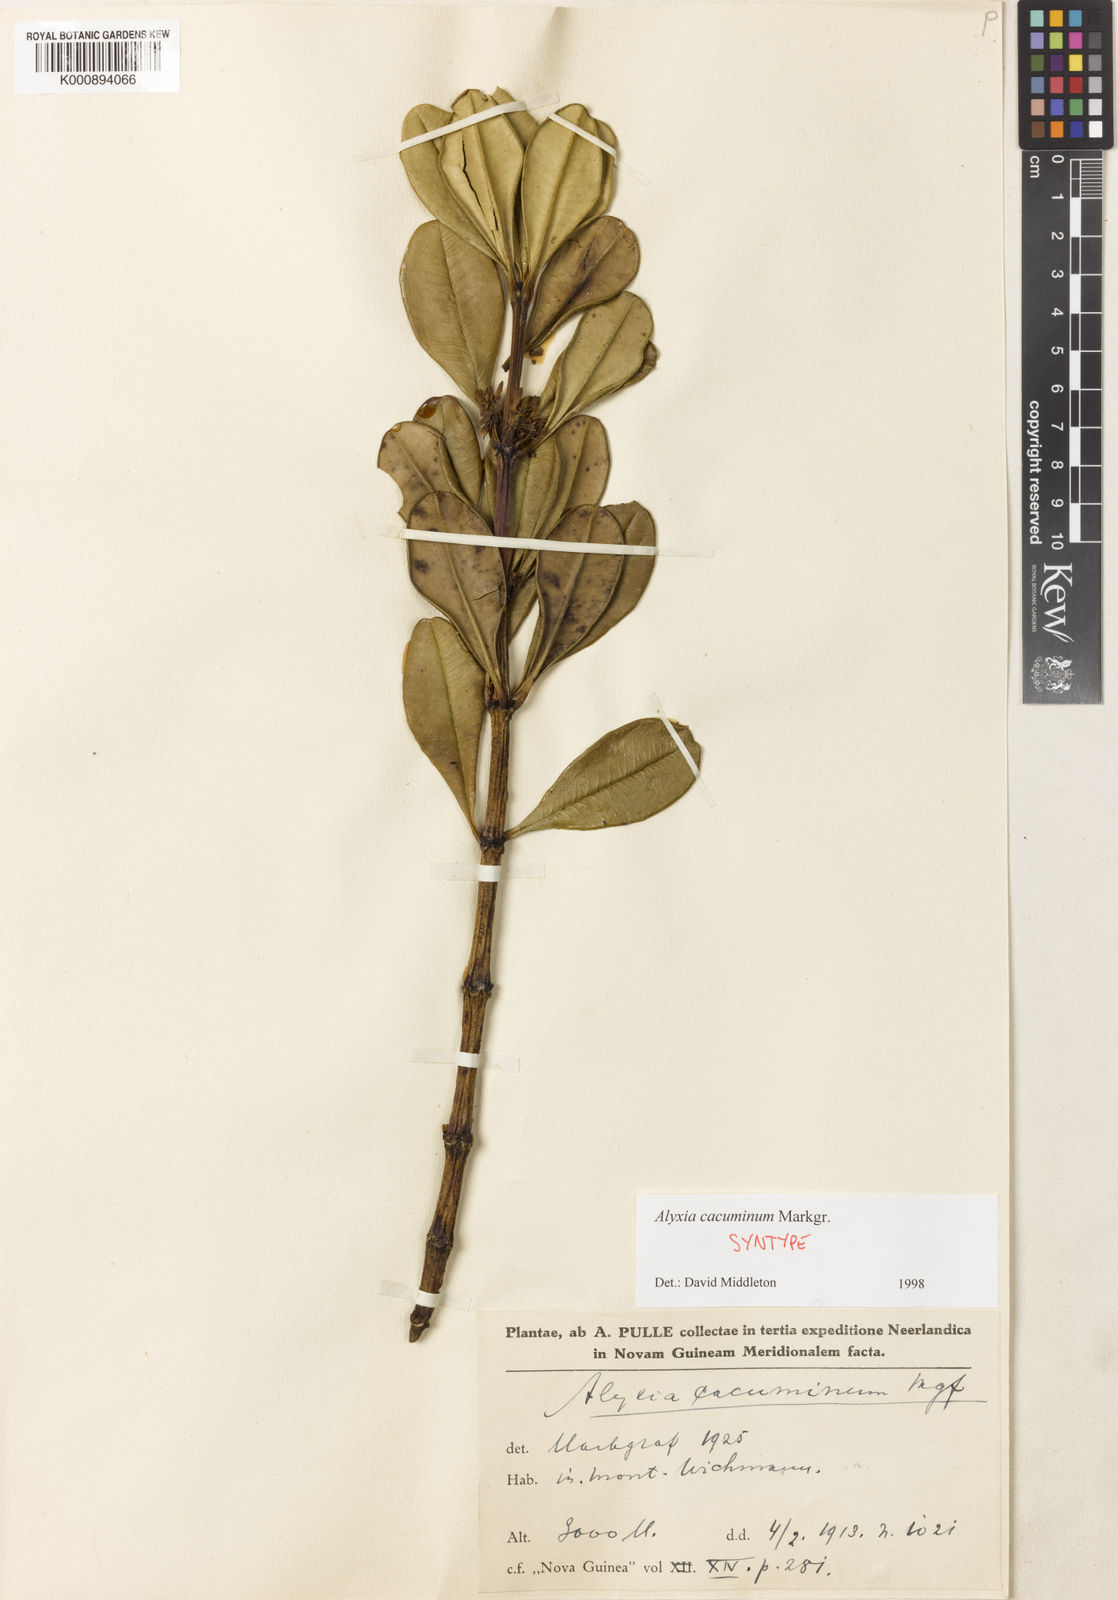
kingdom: Plantae
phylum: Tracheophyta
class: Magnoliopsida
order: Gentianales
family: Apocynaceae
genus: Alyxia
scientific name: Alyxia cacuminum
